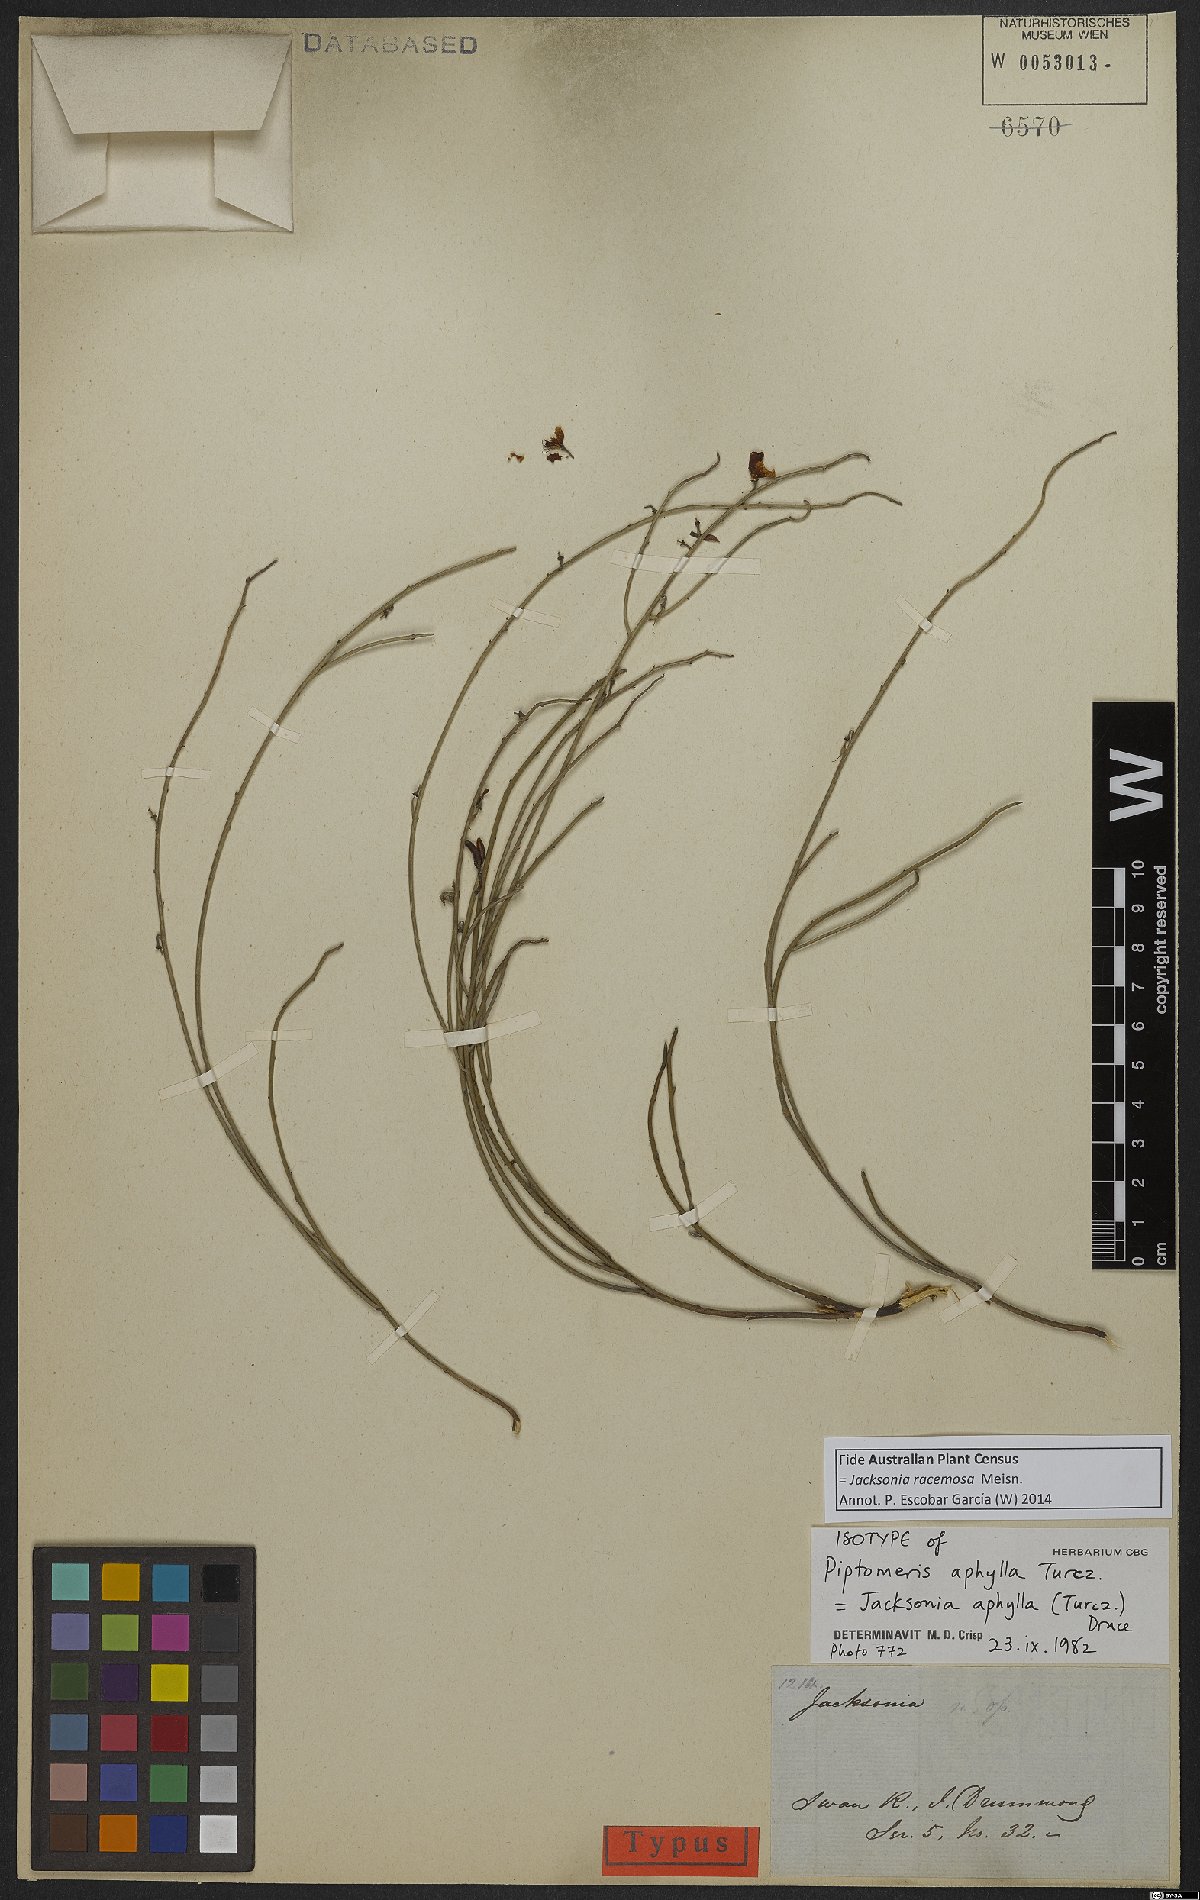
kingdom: Plantae
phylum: Tracheophyta
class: Magnoliopsida
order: Fabales
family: Fabaceae
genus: Jacksonia
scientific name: Jacksonia racemosa
